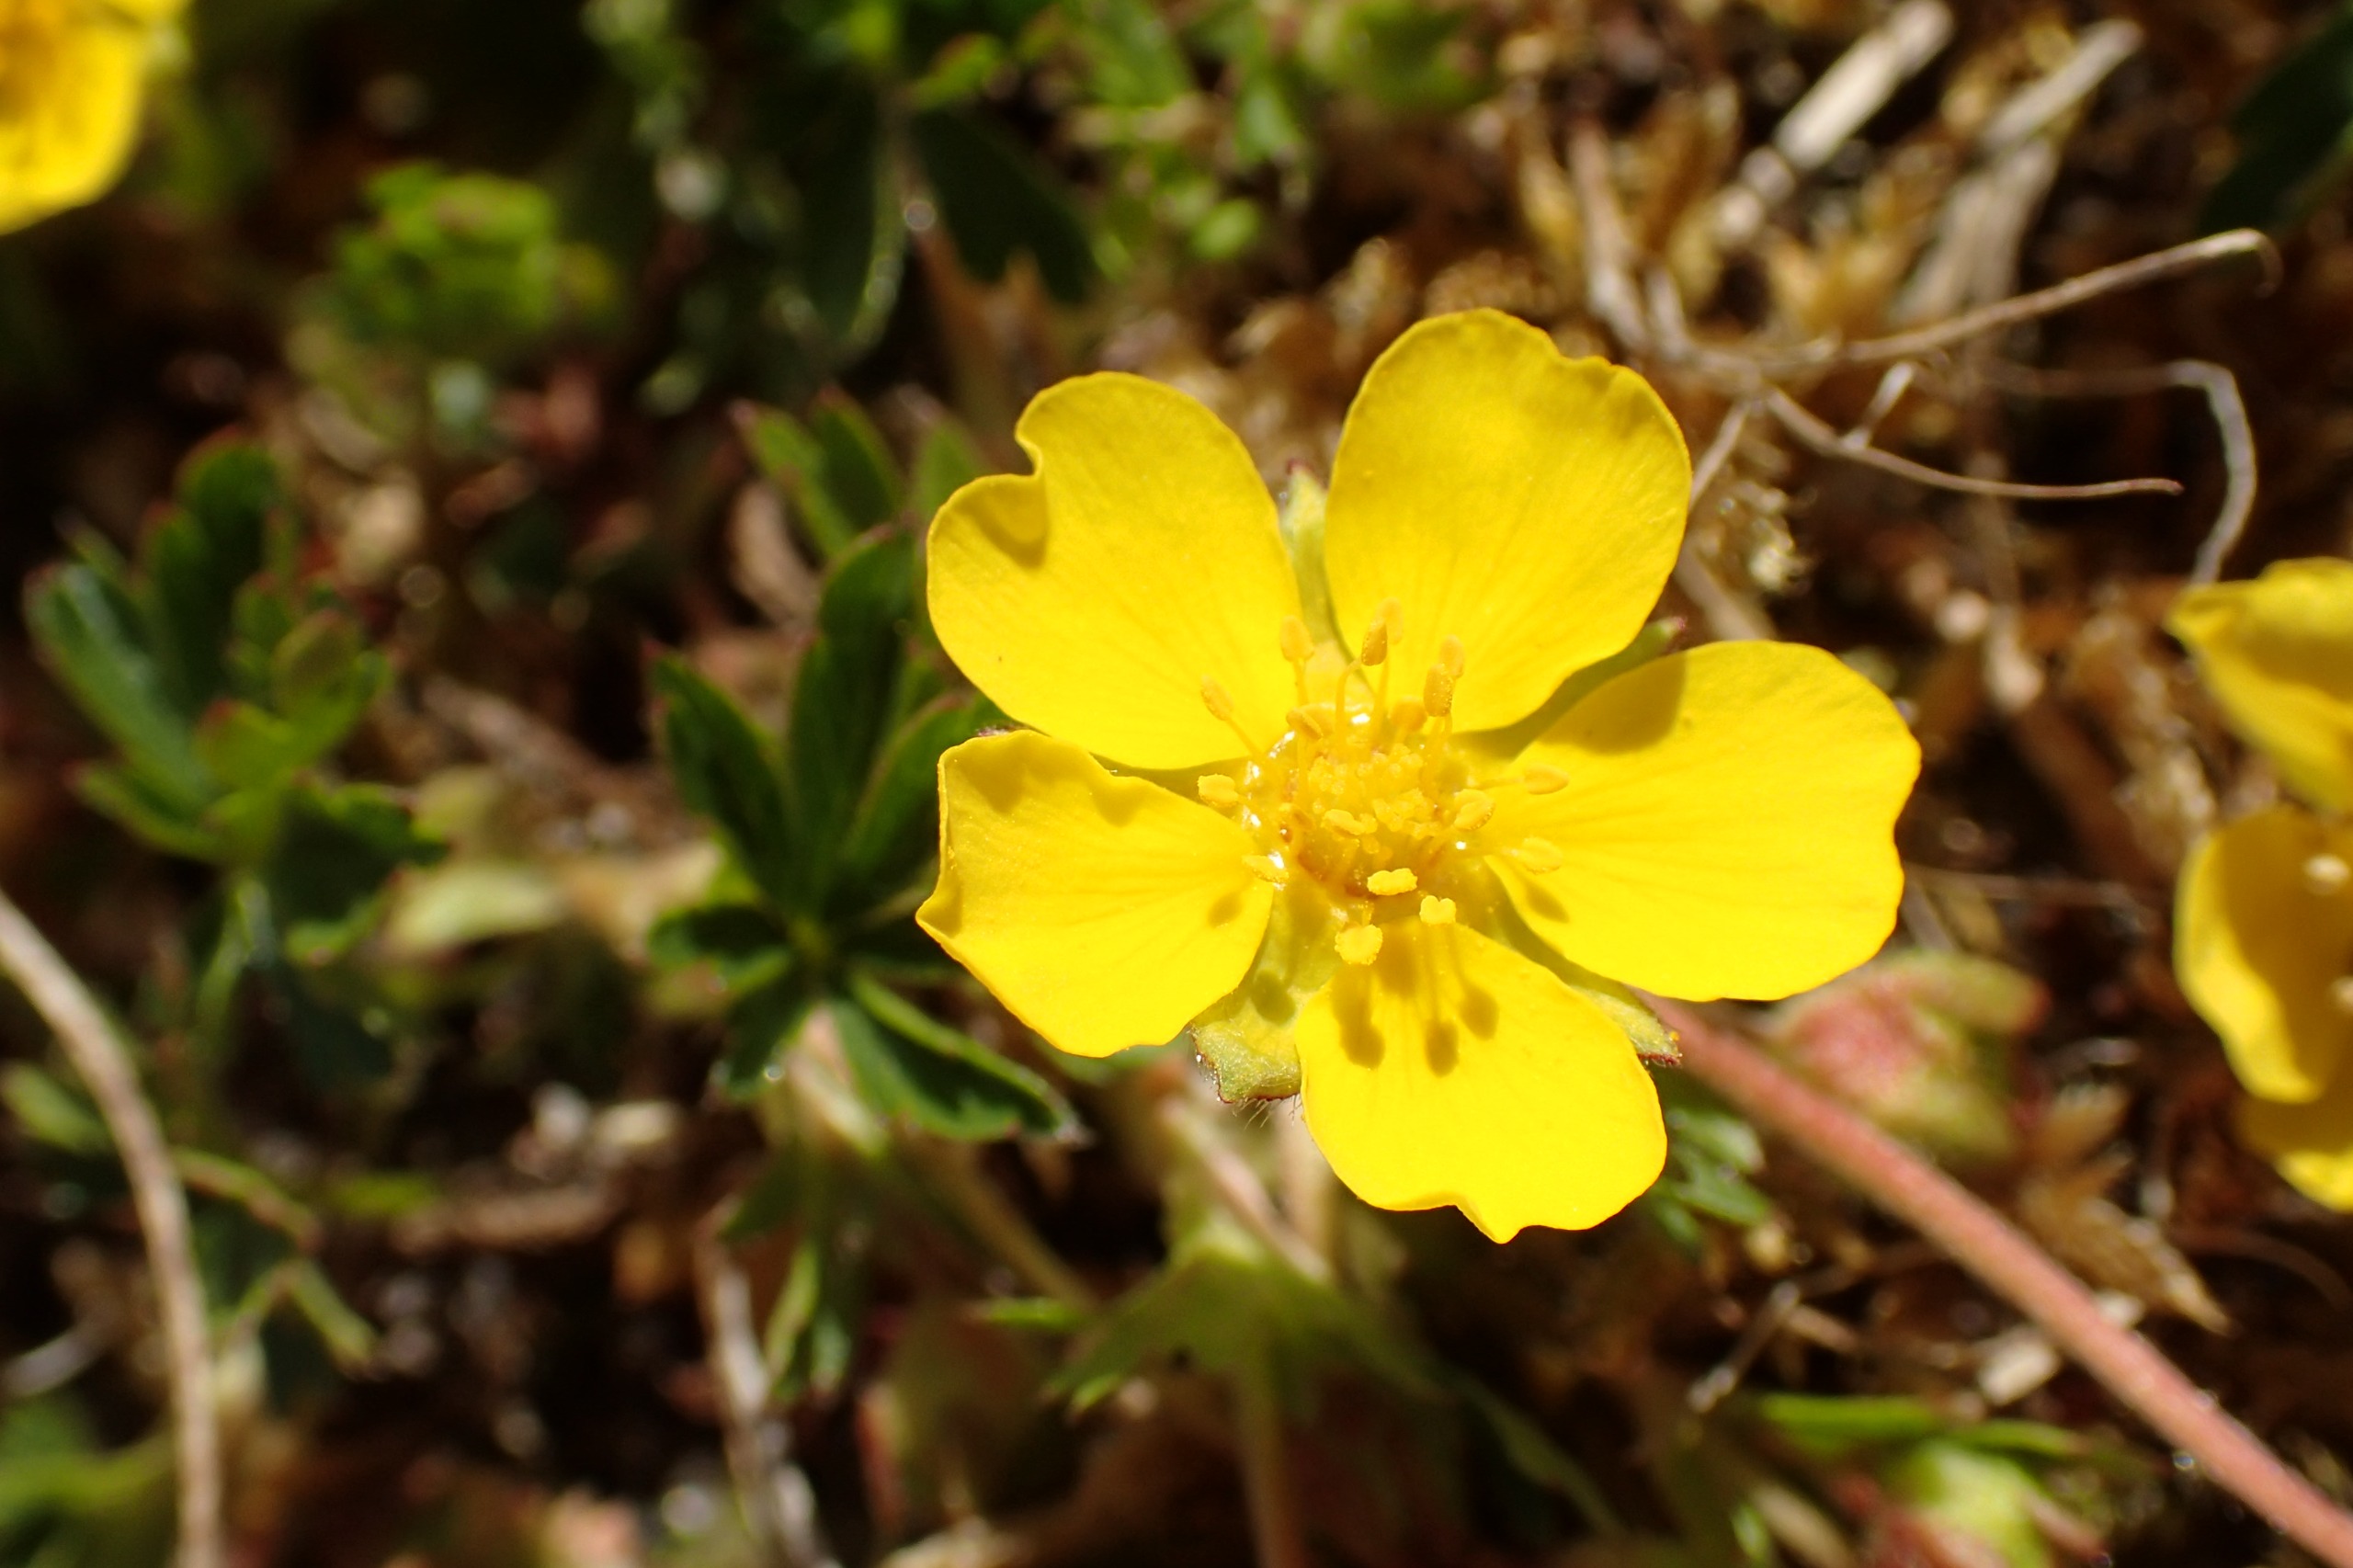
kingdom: Plantae
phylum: Tracheophyta
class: Magnoliopsida
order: Rosales
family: Rosaceae
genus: Potentilla
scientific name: Potentilla verna
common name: Vår-potentil
